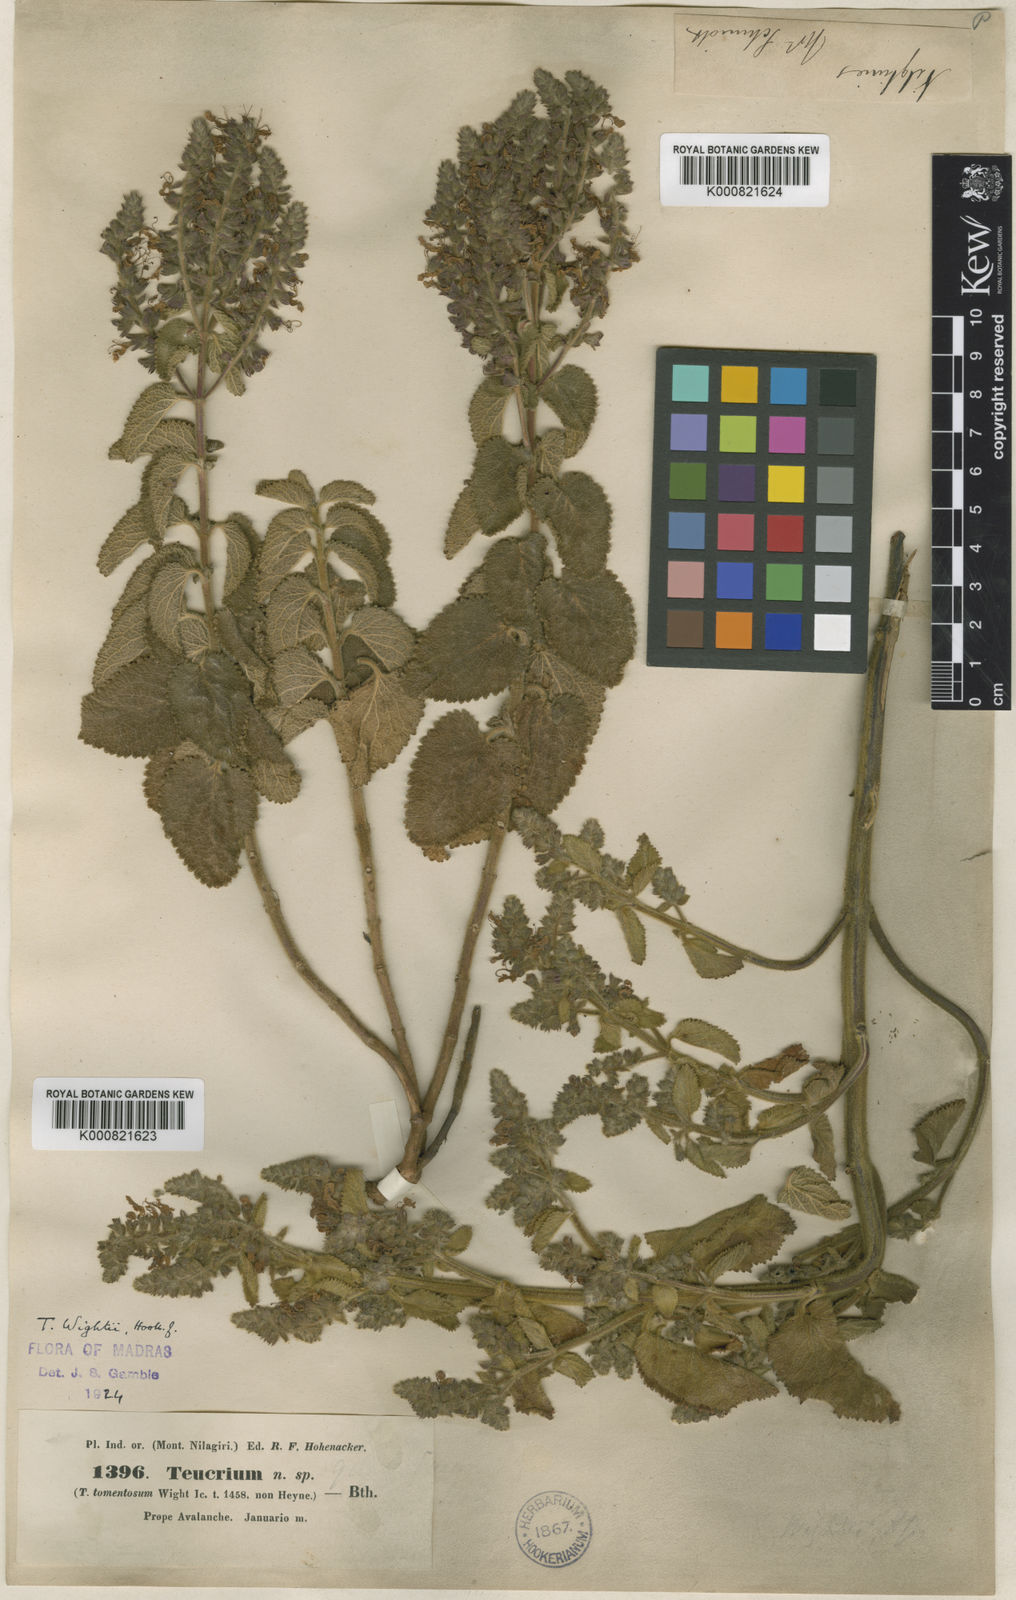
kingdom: Plantae
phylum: Tracheophyta
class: Magnoliopsida
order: Lamiales
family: Lamiaceae
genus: Teucrium
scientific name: Teucrium wightii
